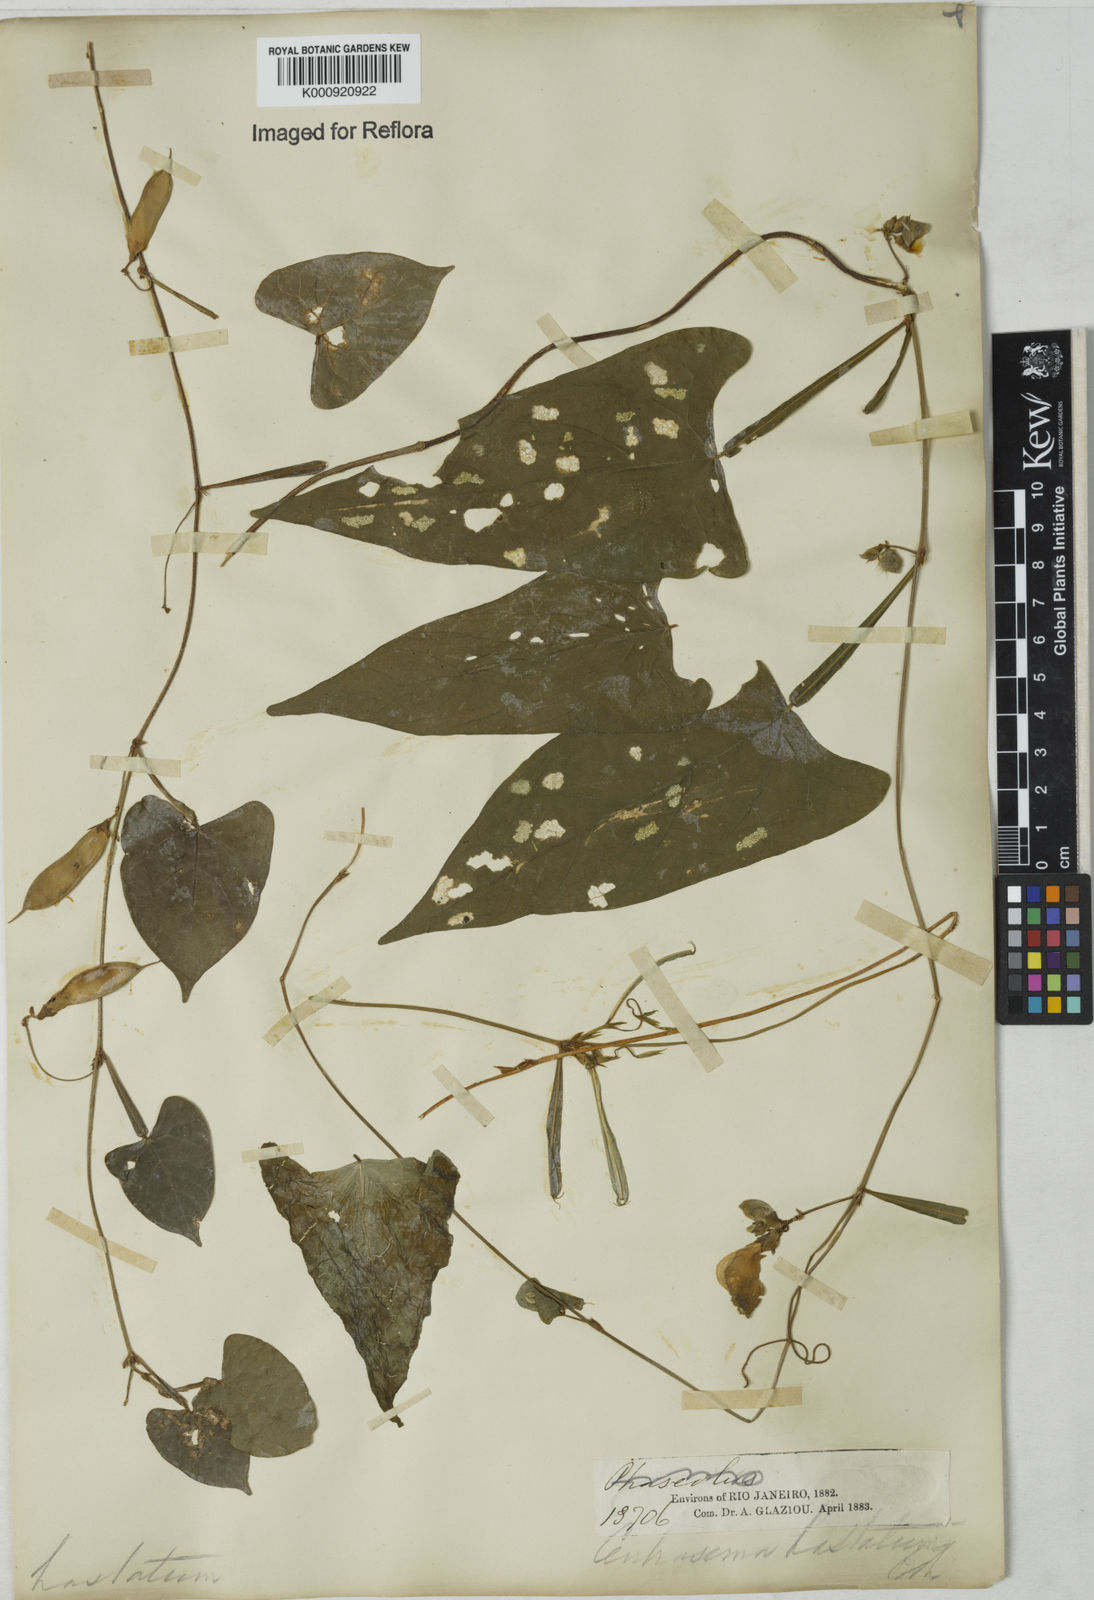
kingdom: Plantae
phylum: Tracheophyta
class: Magnoliopsida
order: Fabales
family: Fabaceae
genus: Centrosema
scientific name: Centrosema sagittatum
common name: Arrowleaf butterfly pea
